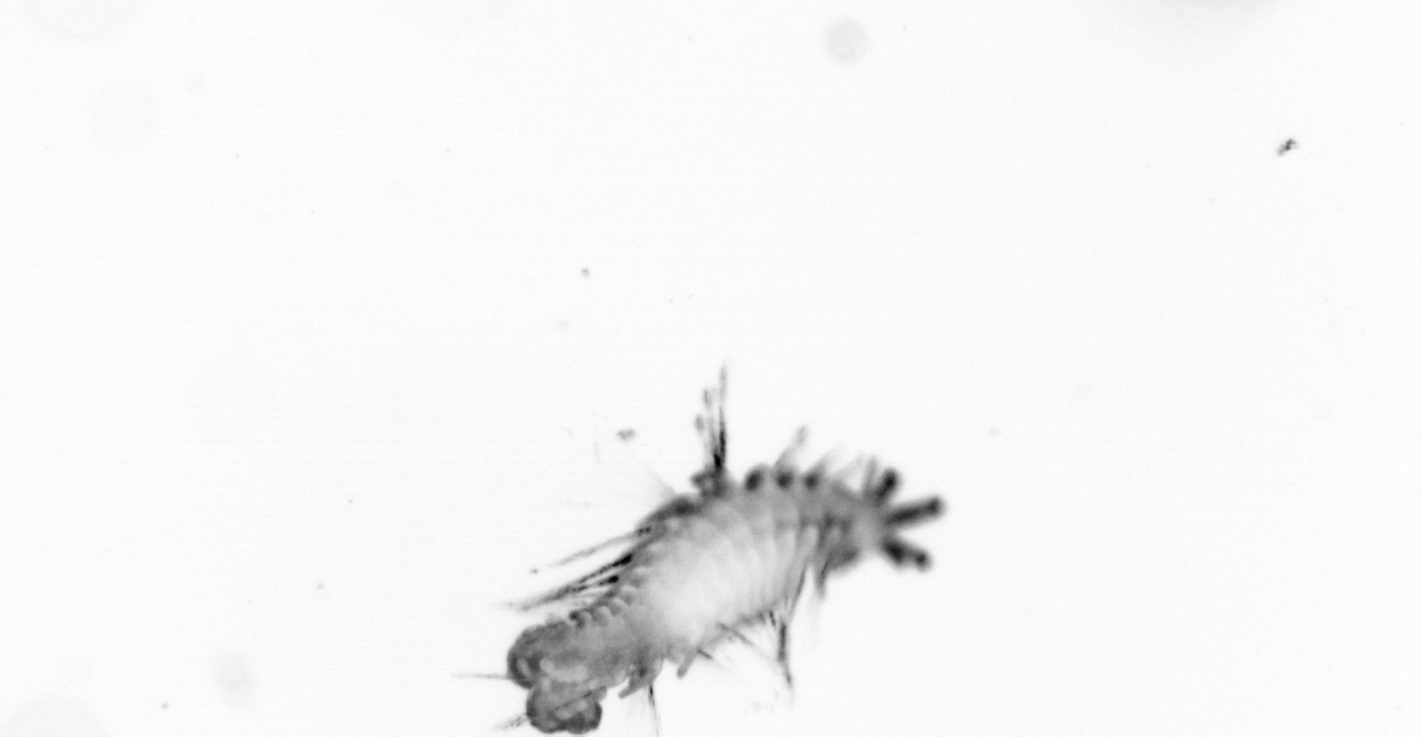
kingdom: Animalia
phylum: Annelida
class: Polychaeta
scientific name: Polychaeta
